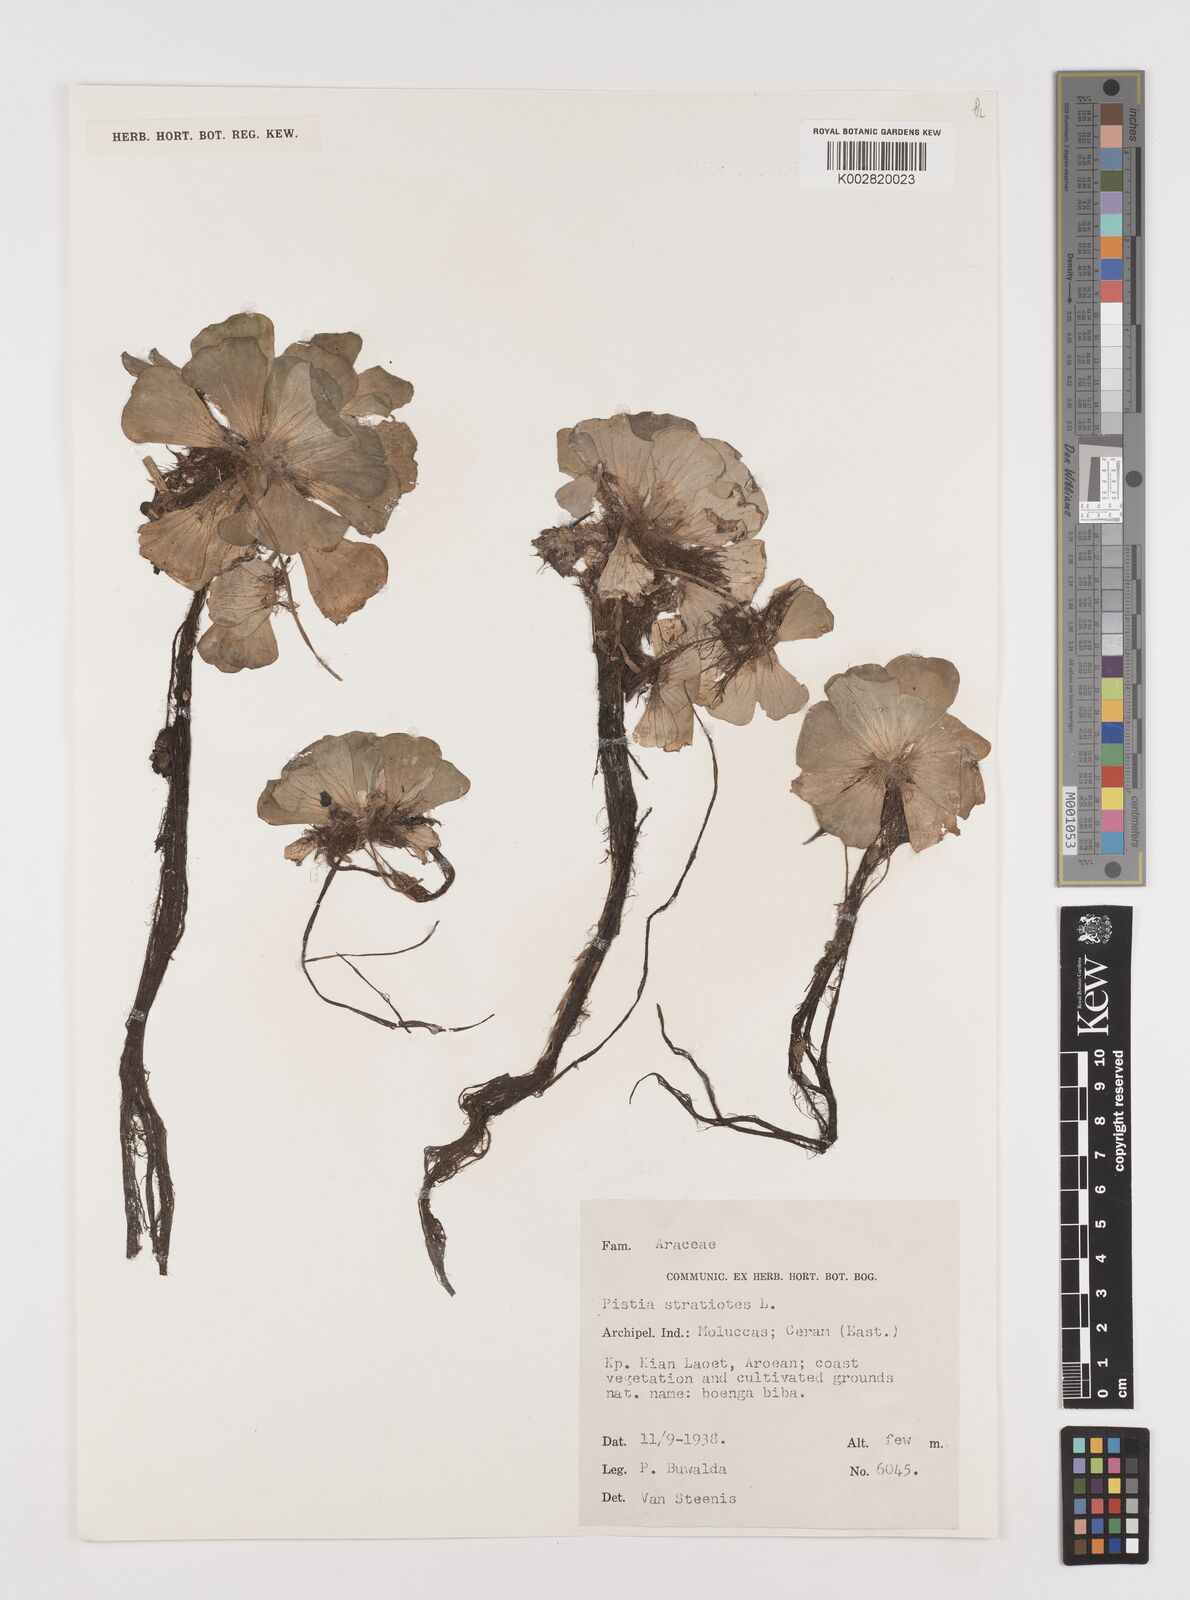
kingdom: Plantae
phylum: Tracheophyta
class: Liliopsida
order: Alismatales
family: Araceae
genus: Pistia
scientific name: Pistia stratiotes
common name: Water lettuce
